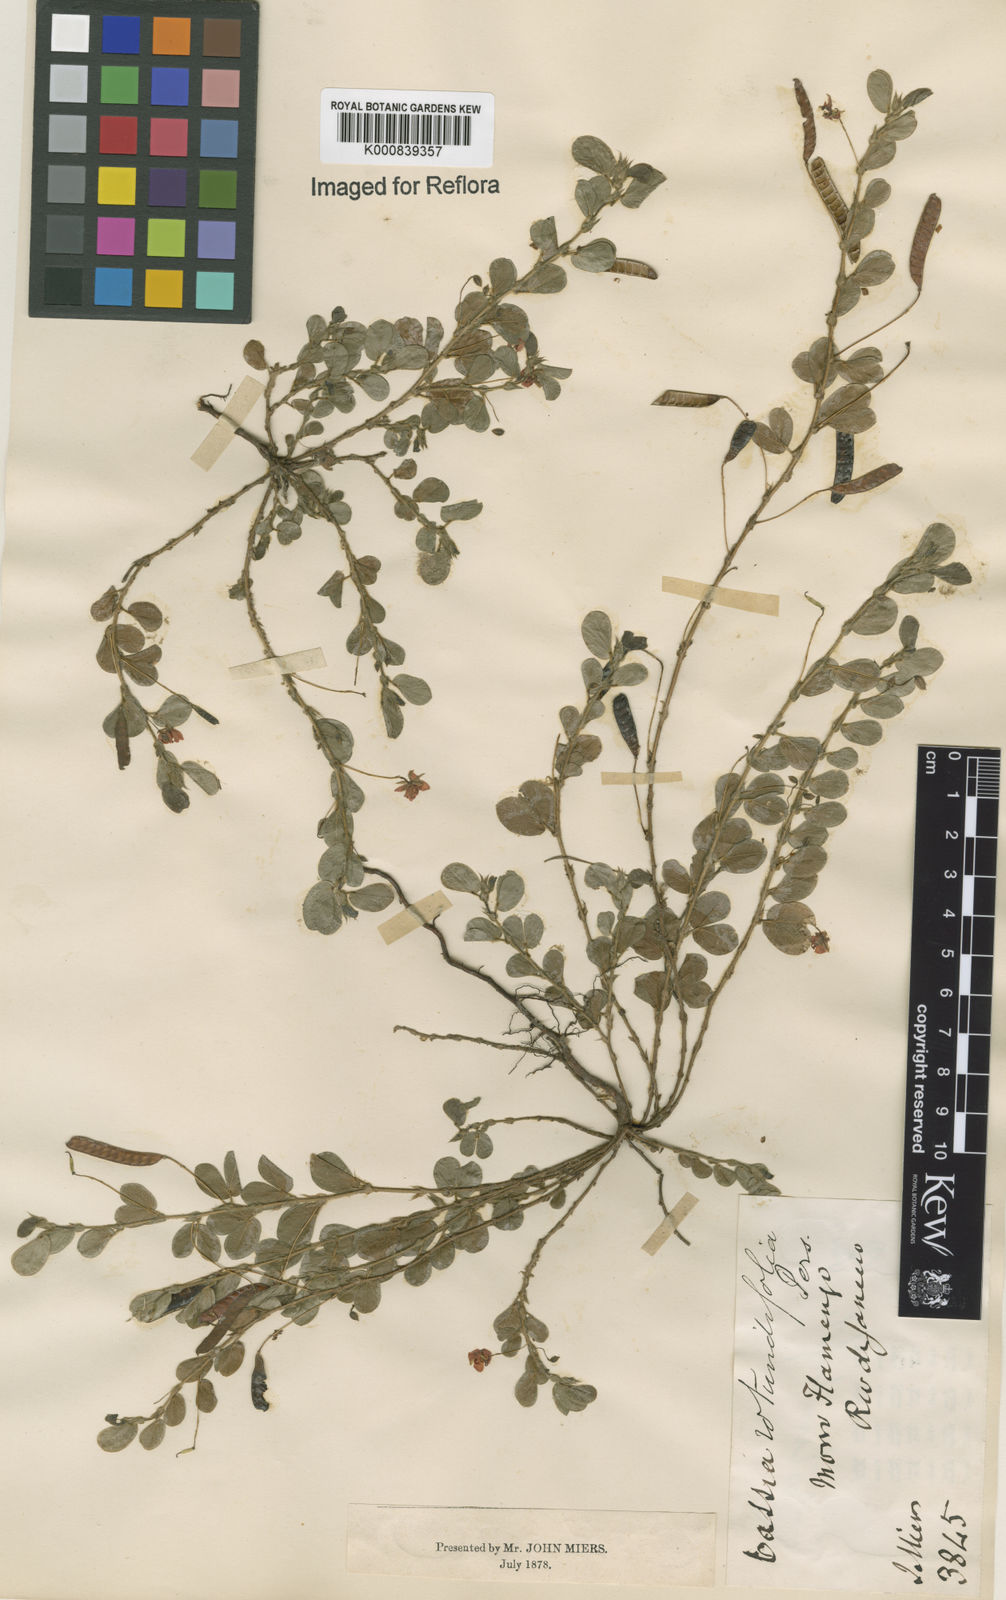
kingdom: Plantae
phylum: Tracheophyta
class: Magnoliopsida
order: Fabales
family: Fabaceae
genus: Chamaecrista
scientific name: Chamaecrista rotundifolia
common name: Round-leaf cassia
